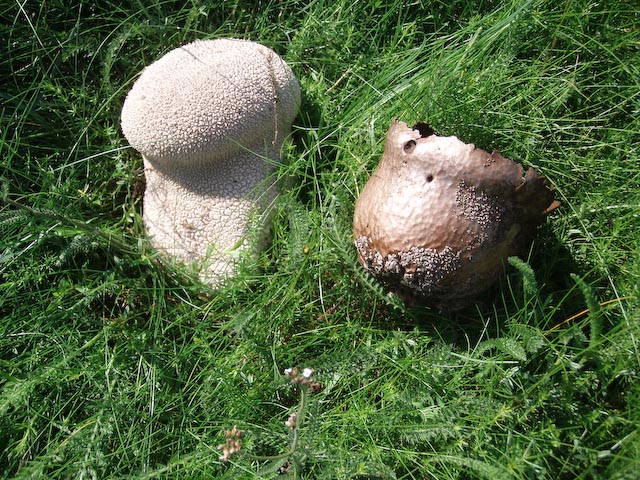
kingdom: Fungi
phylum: Basidiomycota
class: Agaricomycetes
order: Agaricales
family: Lycoperdaceae
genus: Bovistella
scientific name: Bovistella utriformis
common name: skællet støvbold
